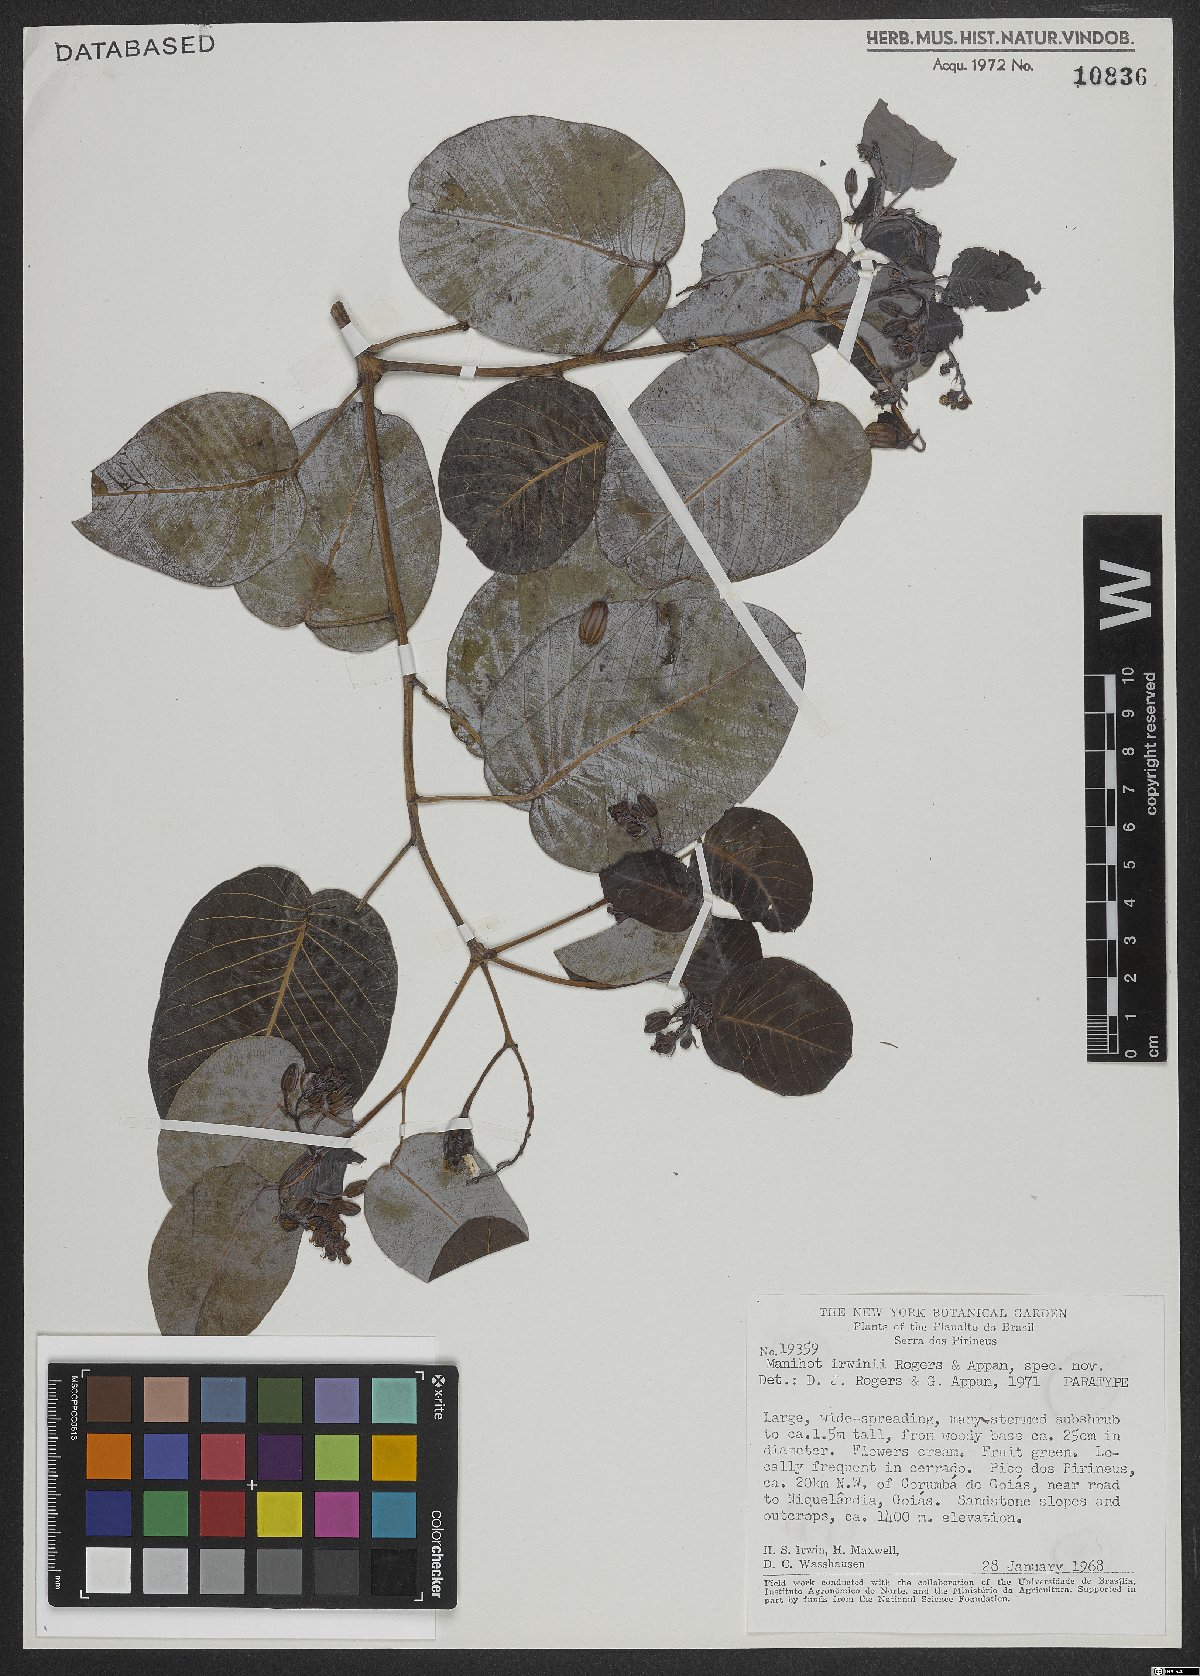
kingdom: Plantae
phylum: Tracheophyta
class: Magnoliopsida
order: Malpighiales
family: Euphorbiaceae
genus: Manihot
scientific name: Manihot irwinii
